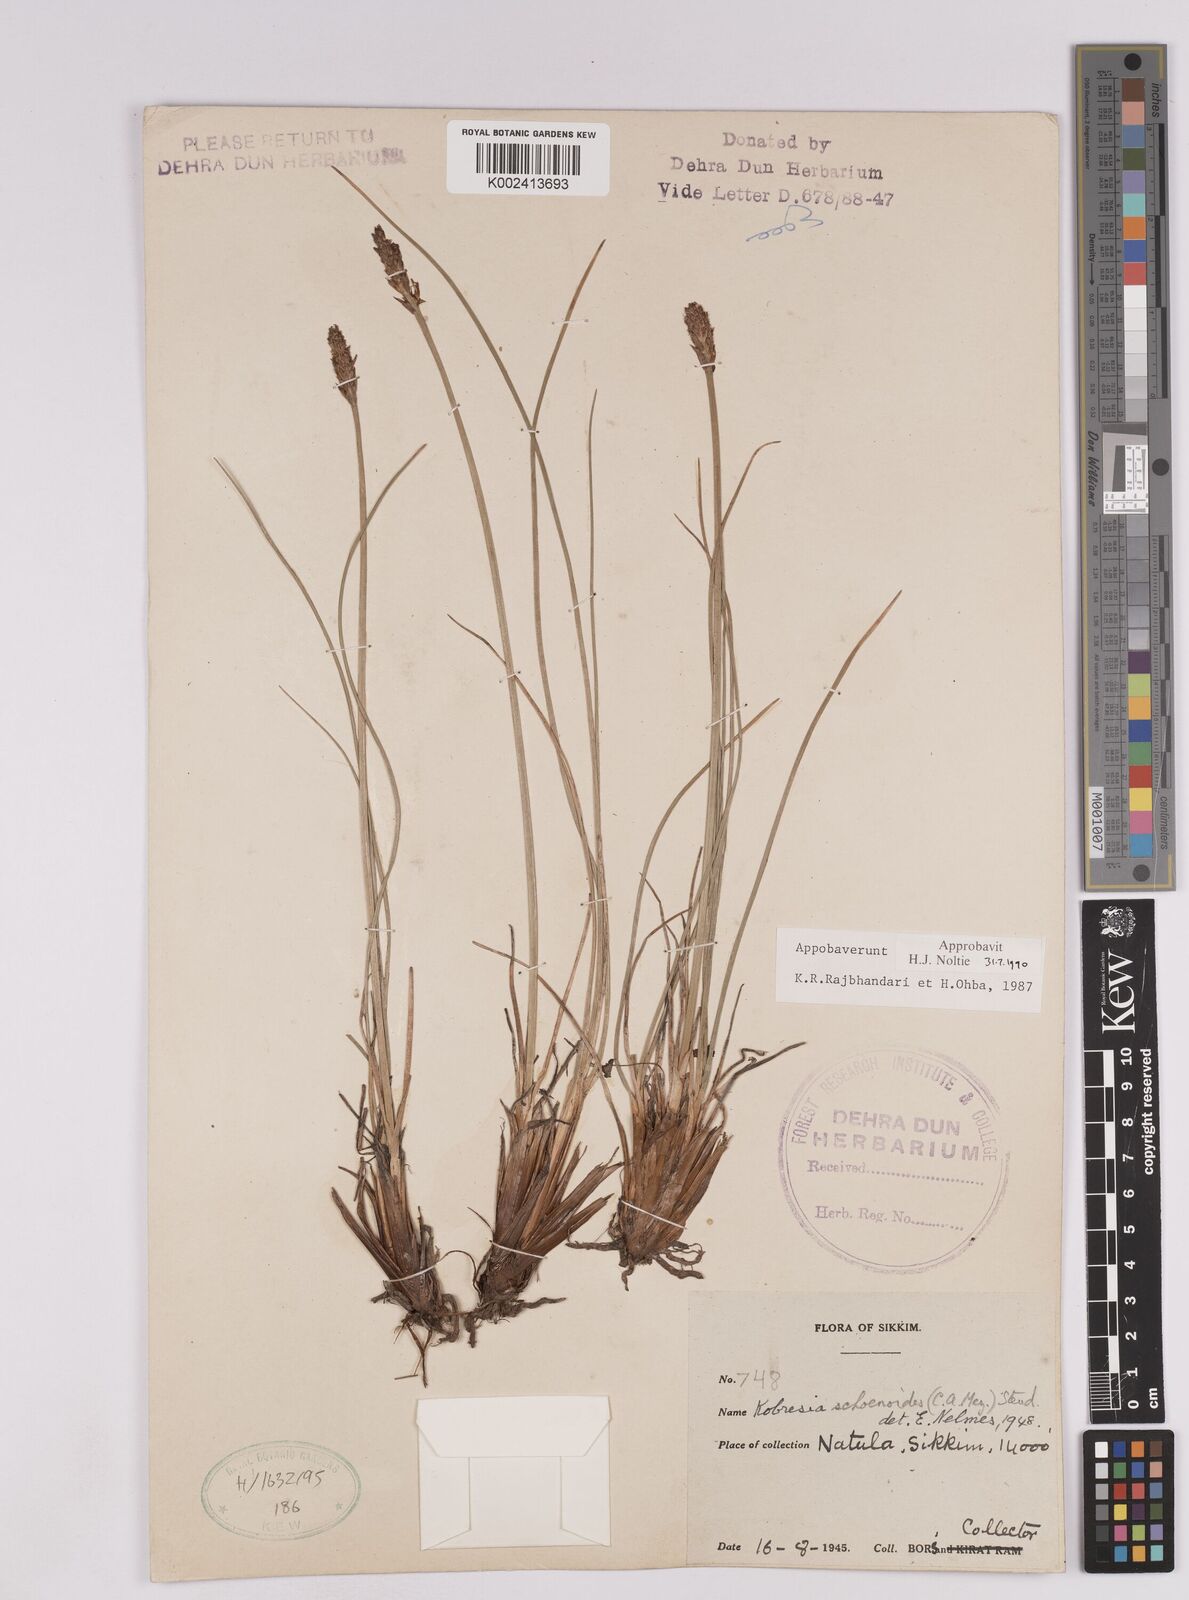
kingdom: Plantae
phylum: Tracheophyta
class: Liliopsida
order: Poales
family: Cyperaceae
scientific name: Cyperaceae
